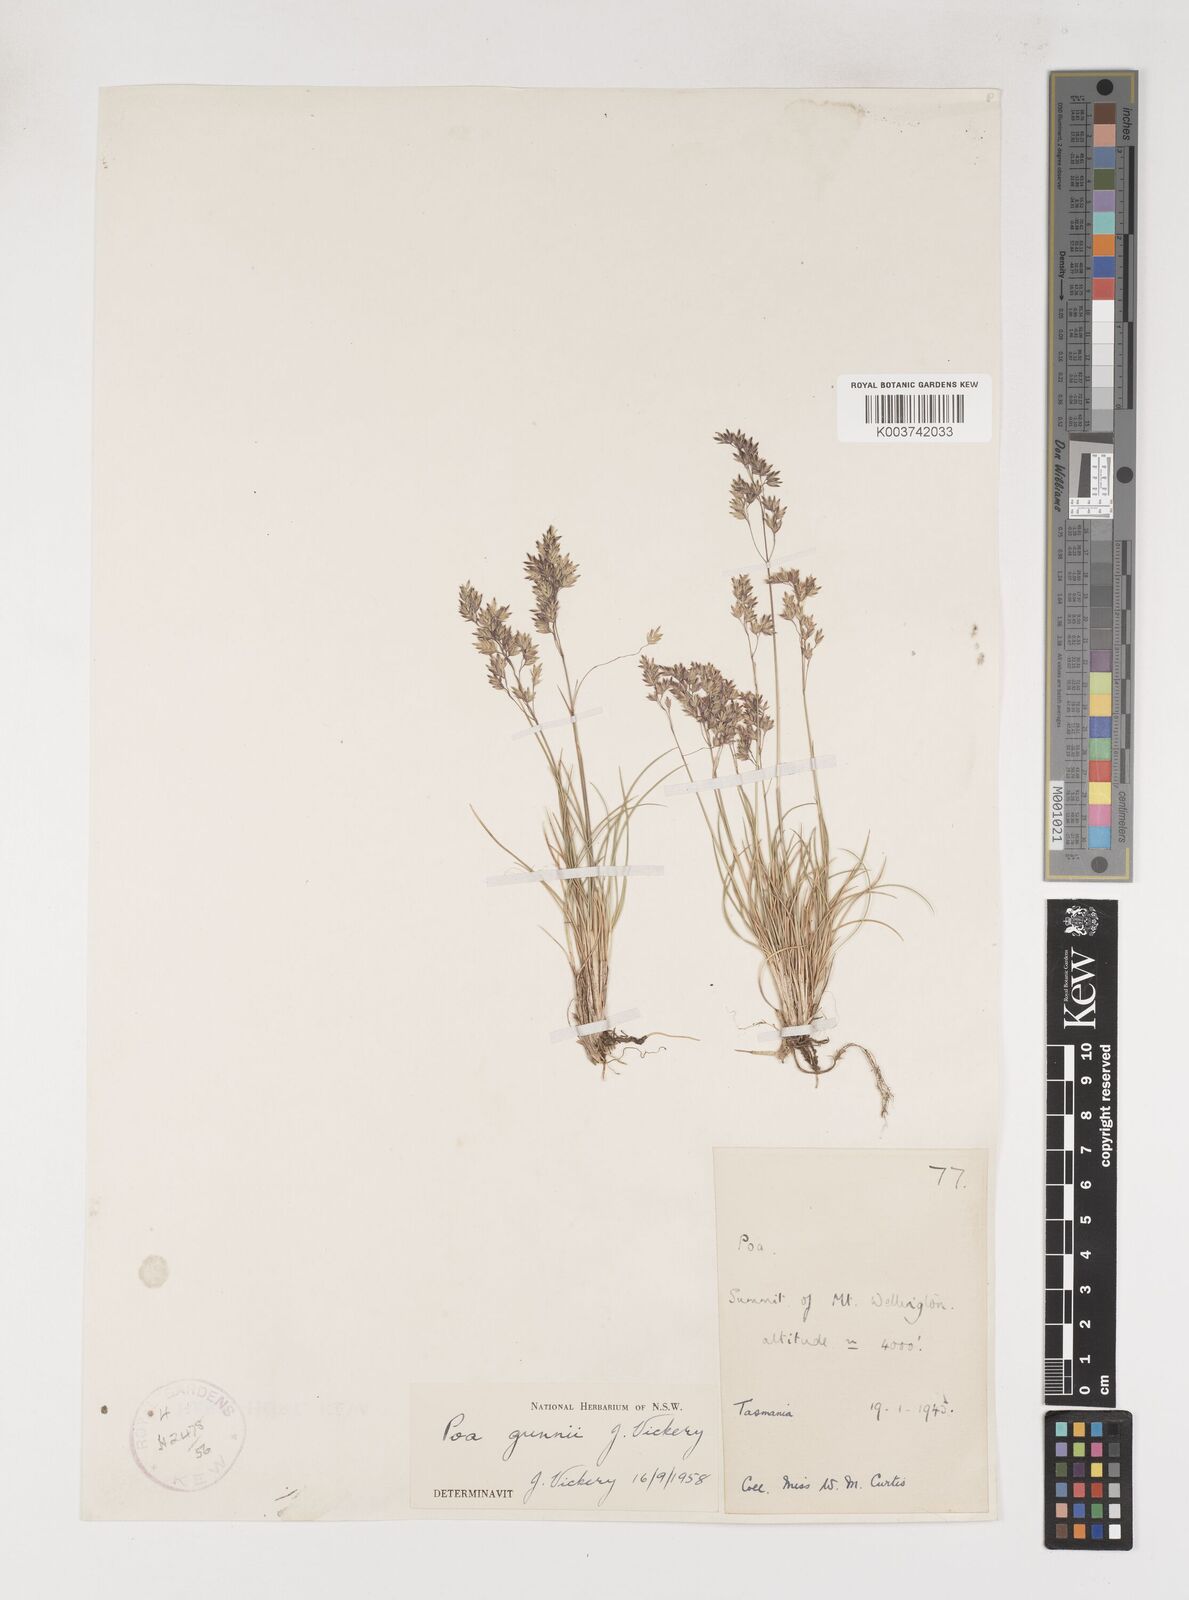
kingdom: Plantae
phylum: Tracheophyta
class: Liliopsida
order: Poales
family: Poaceae
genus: Poa
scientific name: Poa gunnii
